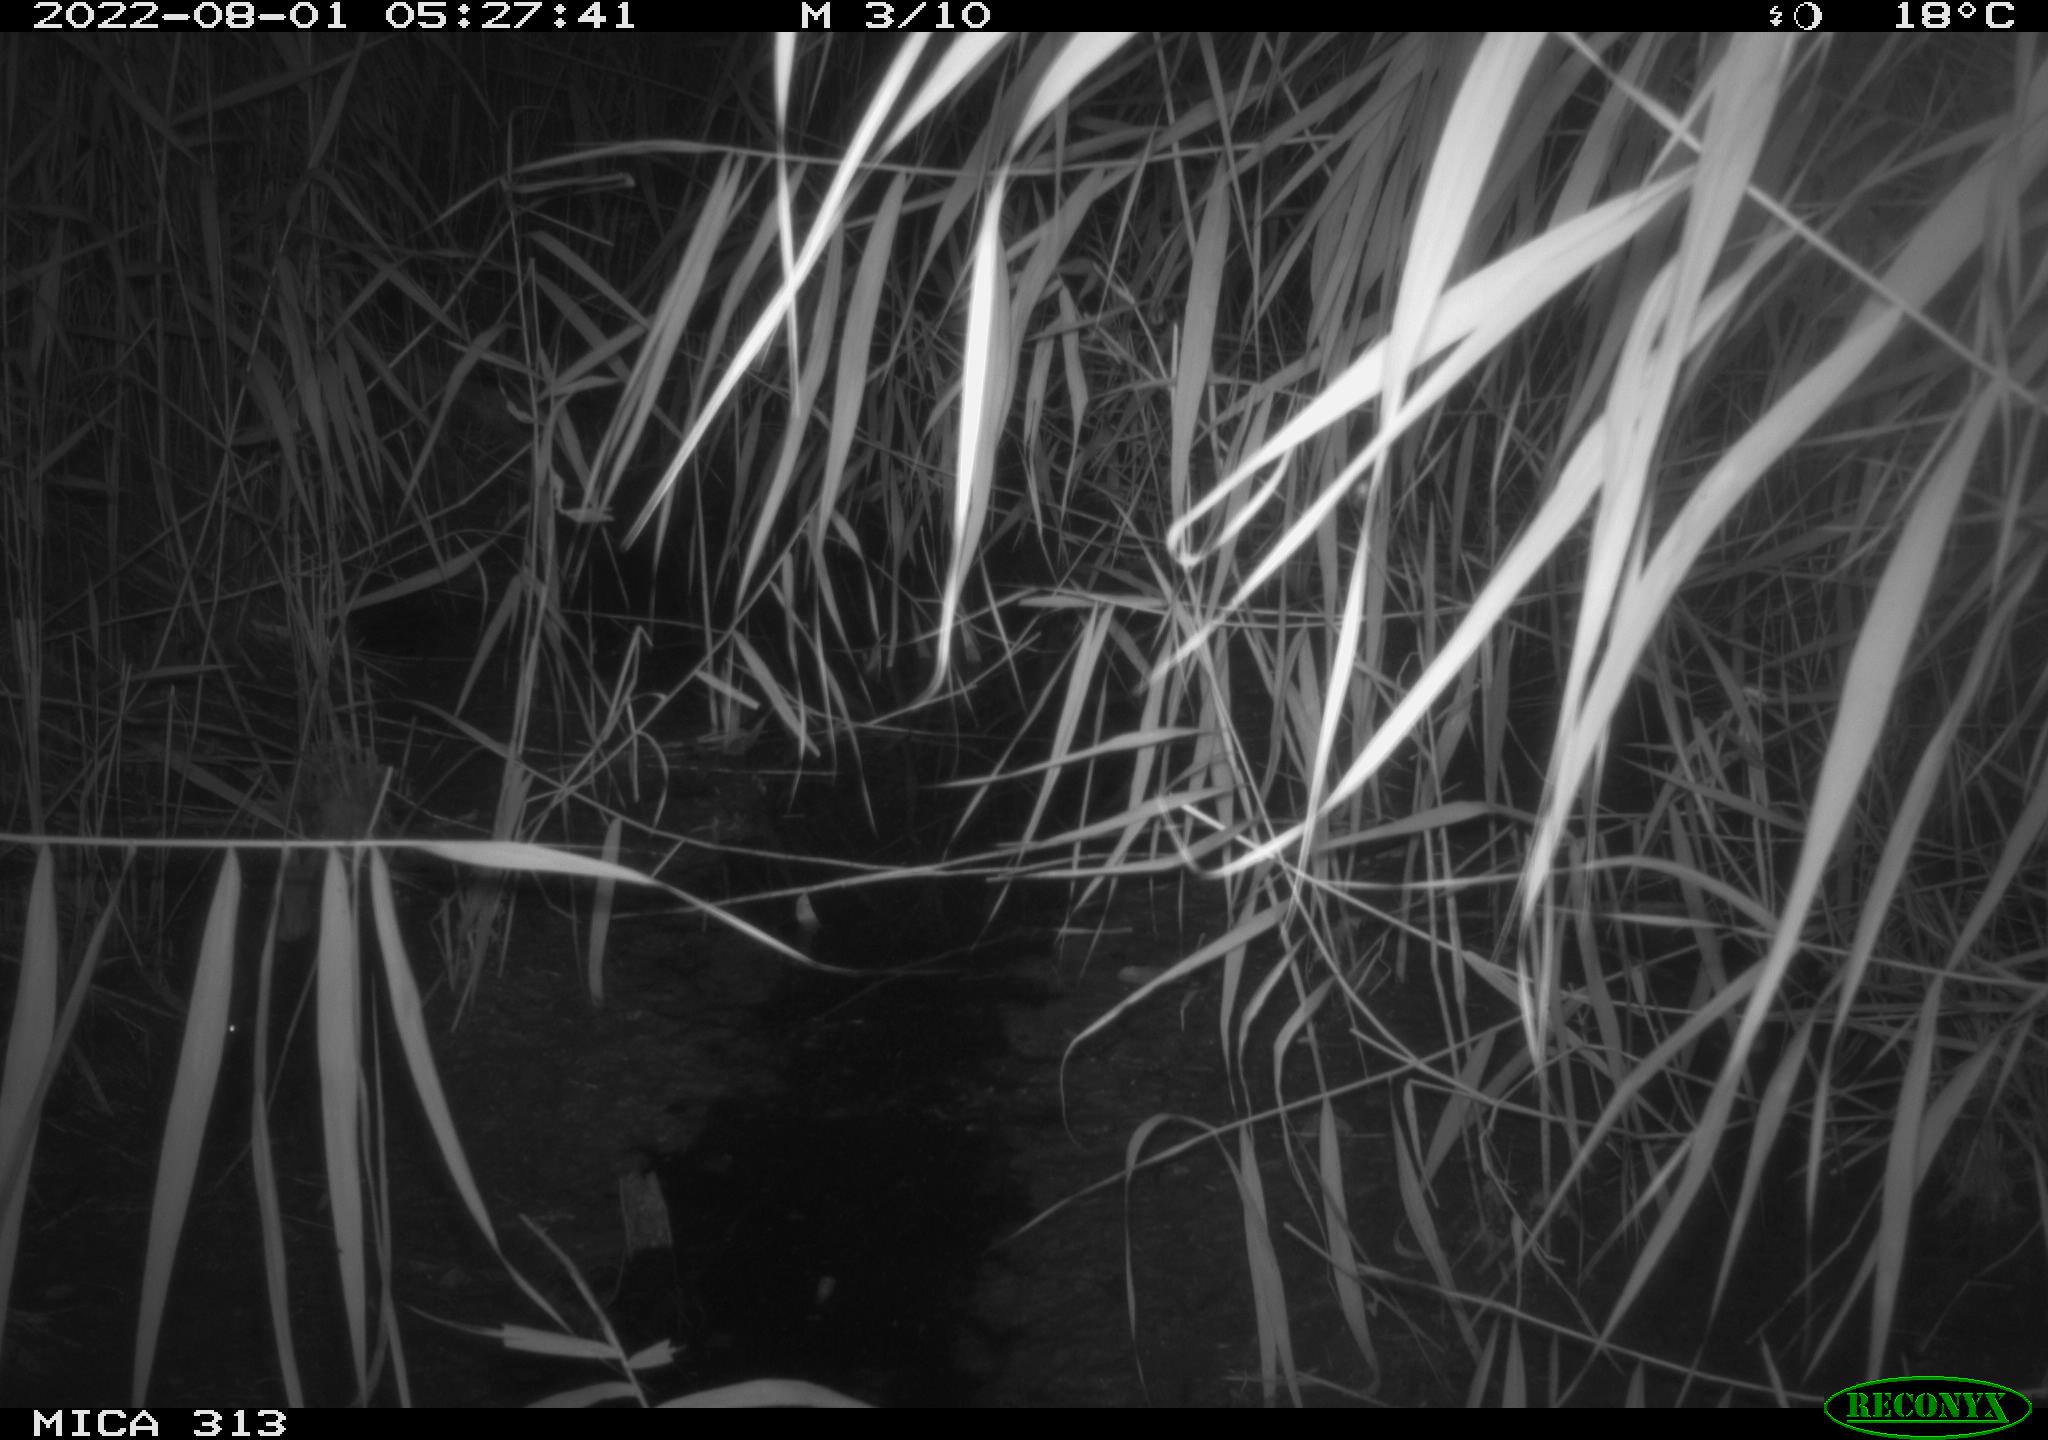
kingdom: Animalia
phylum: Chordata
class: Mammalia
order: Rodentia
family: Muridae
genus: Rattus
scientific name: Rattus norvegicus
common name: Brown rat
